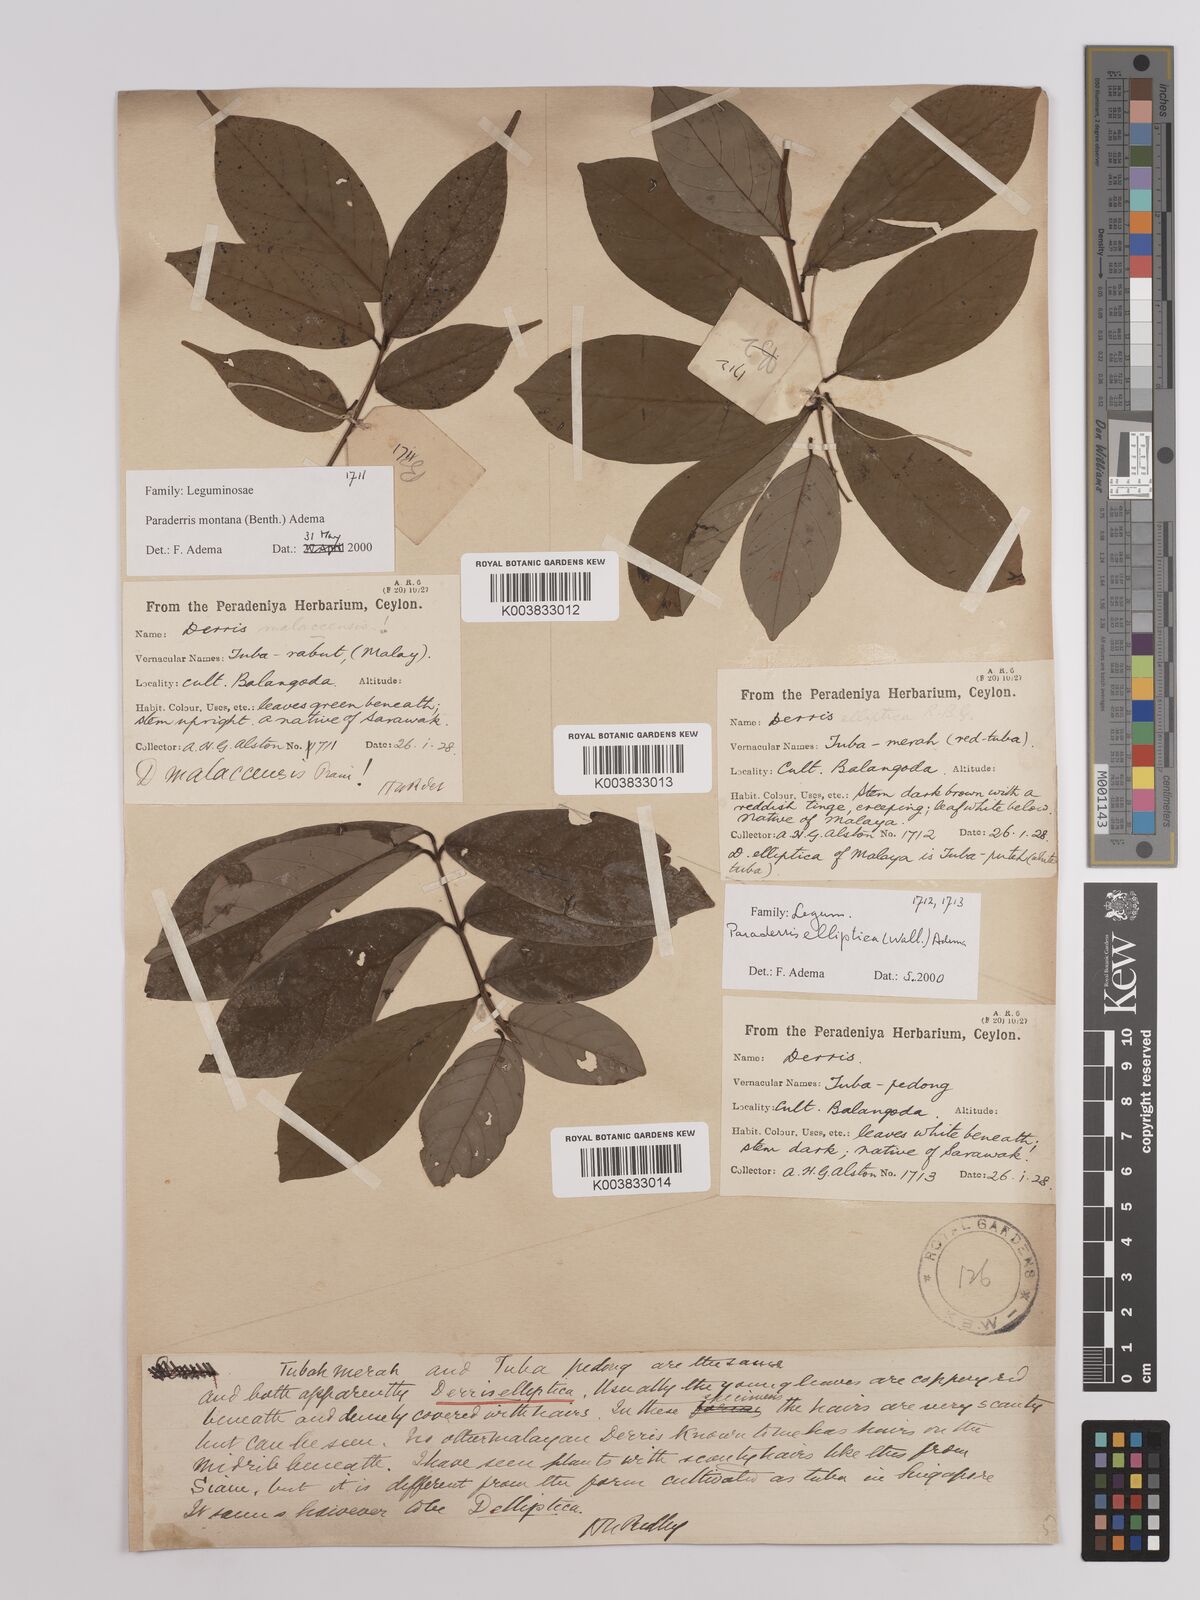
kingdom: Plantae
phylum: Tracheophyta
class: Magnoliopsida
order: Fabales
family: Fabaceae
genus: Derris
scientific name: Derris elliptica
